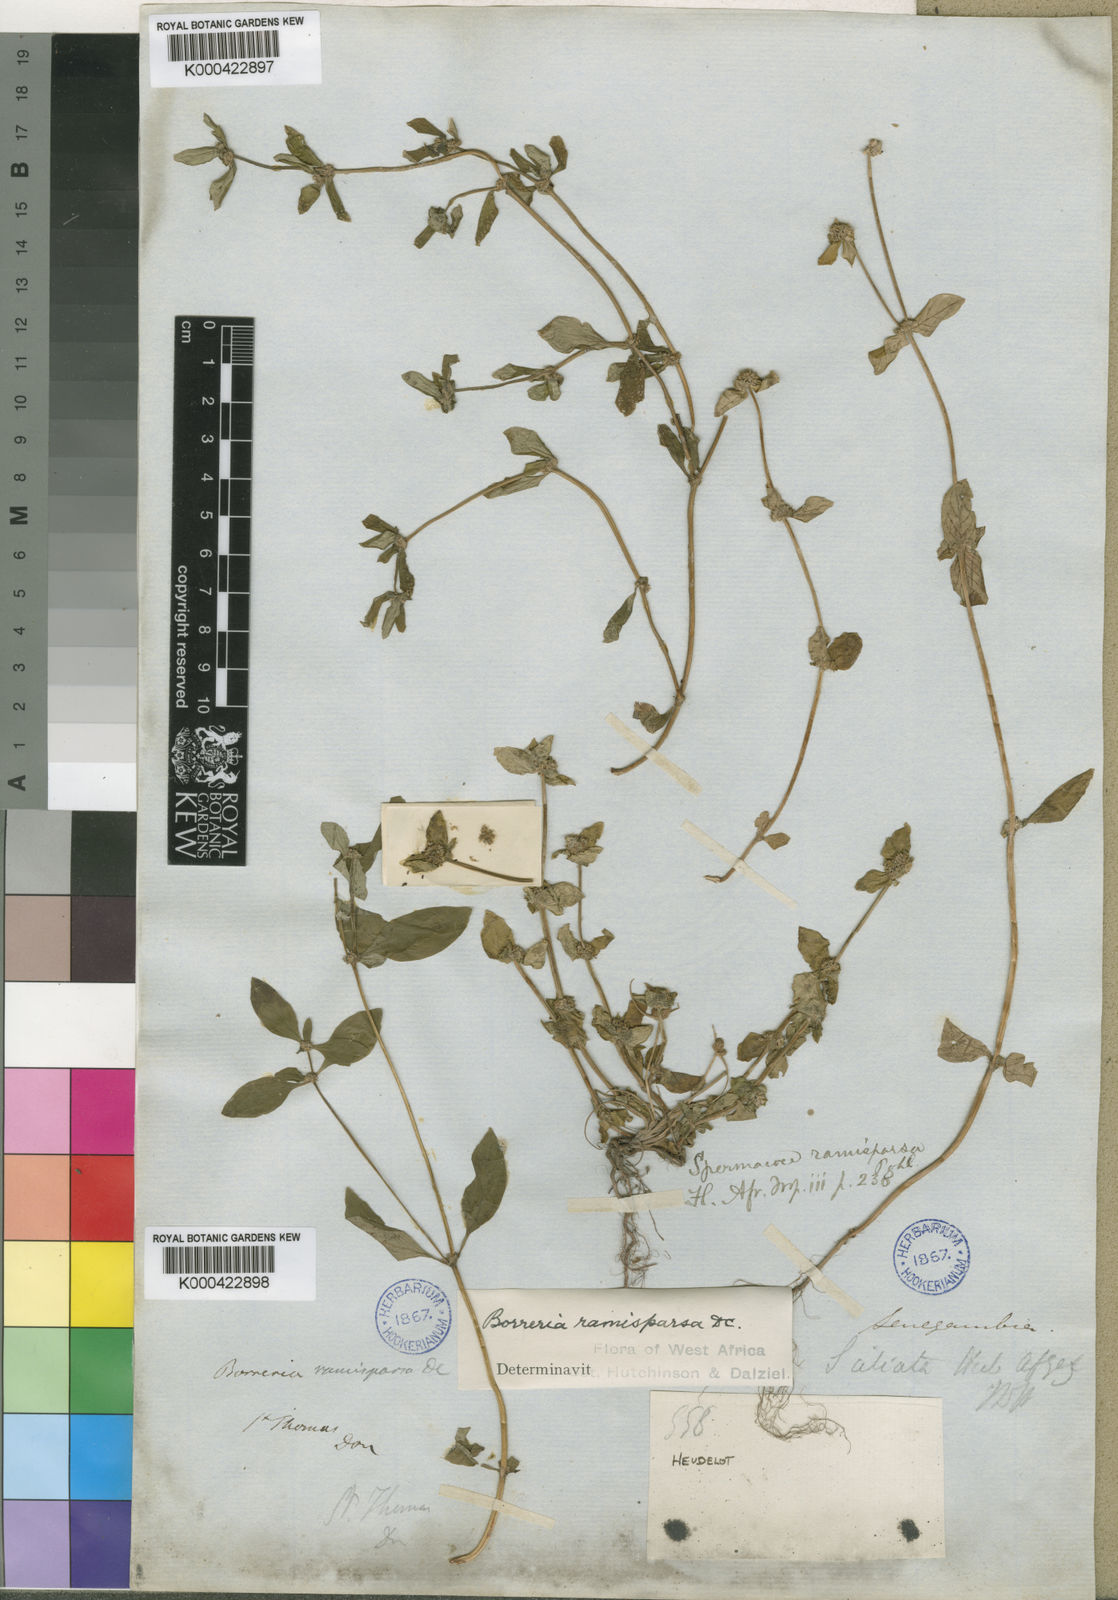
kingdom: Plantae
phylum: Tracheophyta
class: Magnoliopsida
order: Gentianales
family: Rubiaceae
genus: Spermacoce
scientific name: Spermacoce exilis
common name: Pacific false buttonweed
